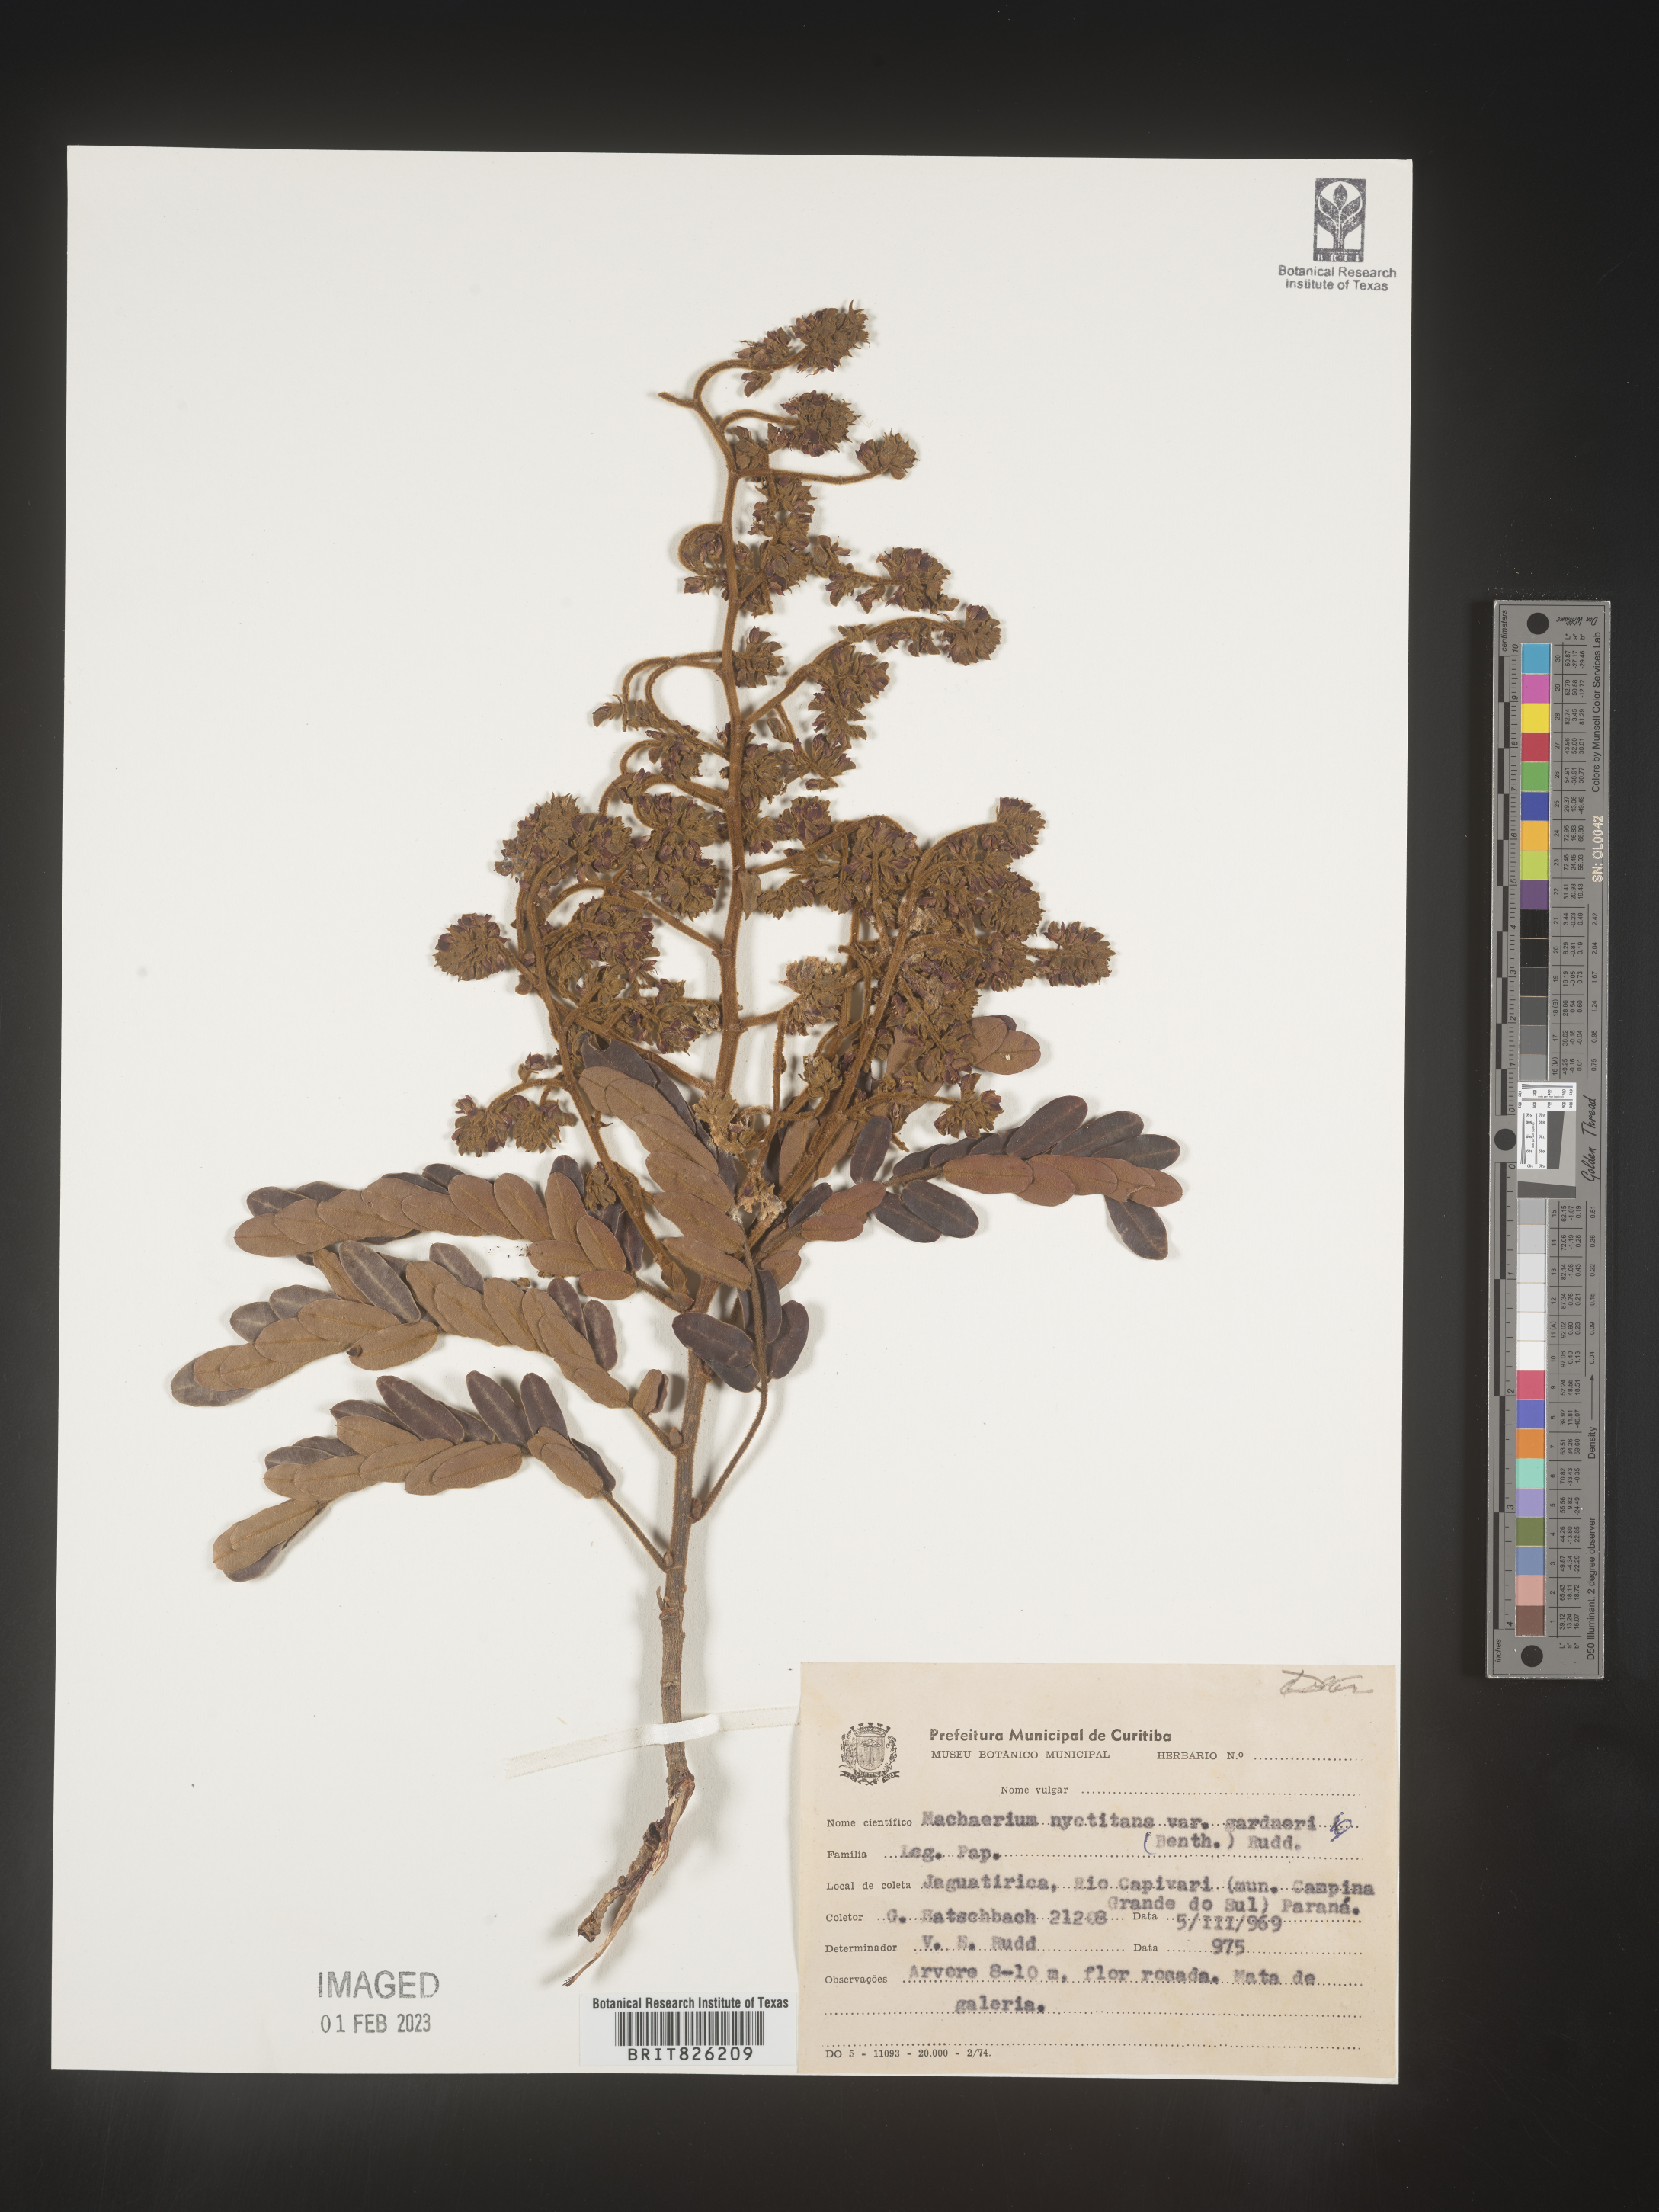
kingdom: Plantae
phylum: Tracheophyta
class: Magnoliopsida
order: Fabales
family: Fabaceae
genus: Machaerium
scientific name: Machaerium
